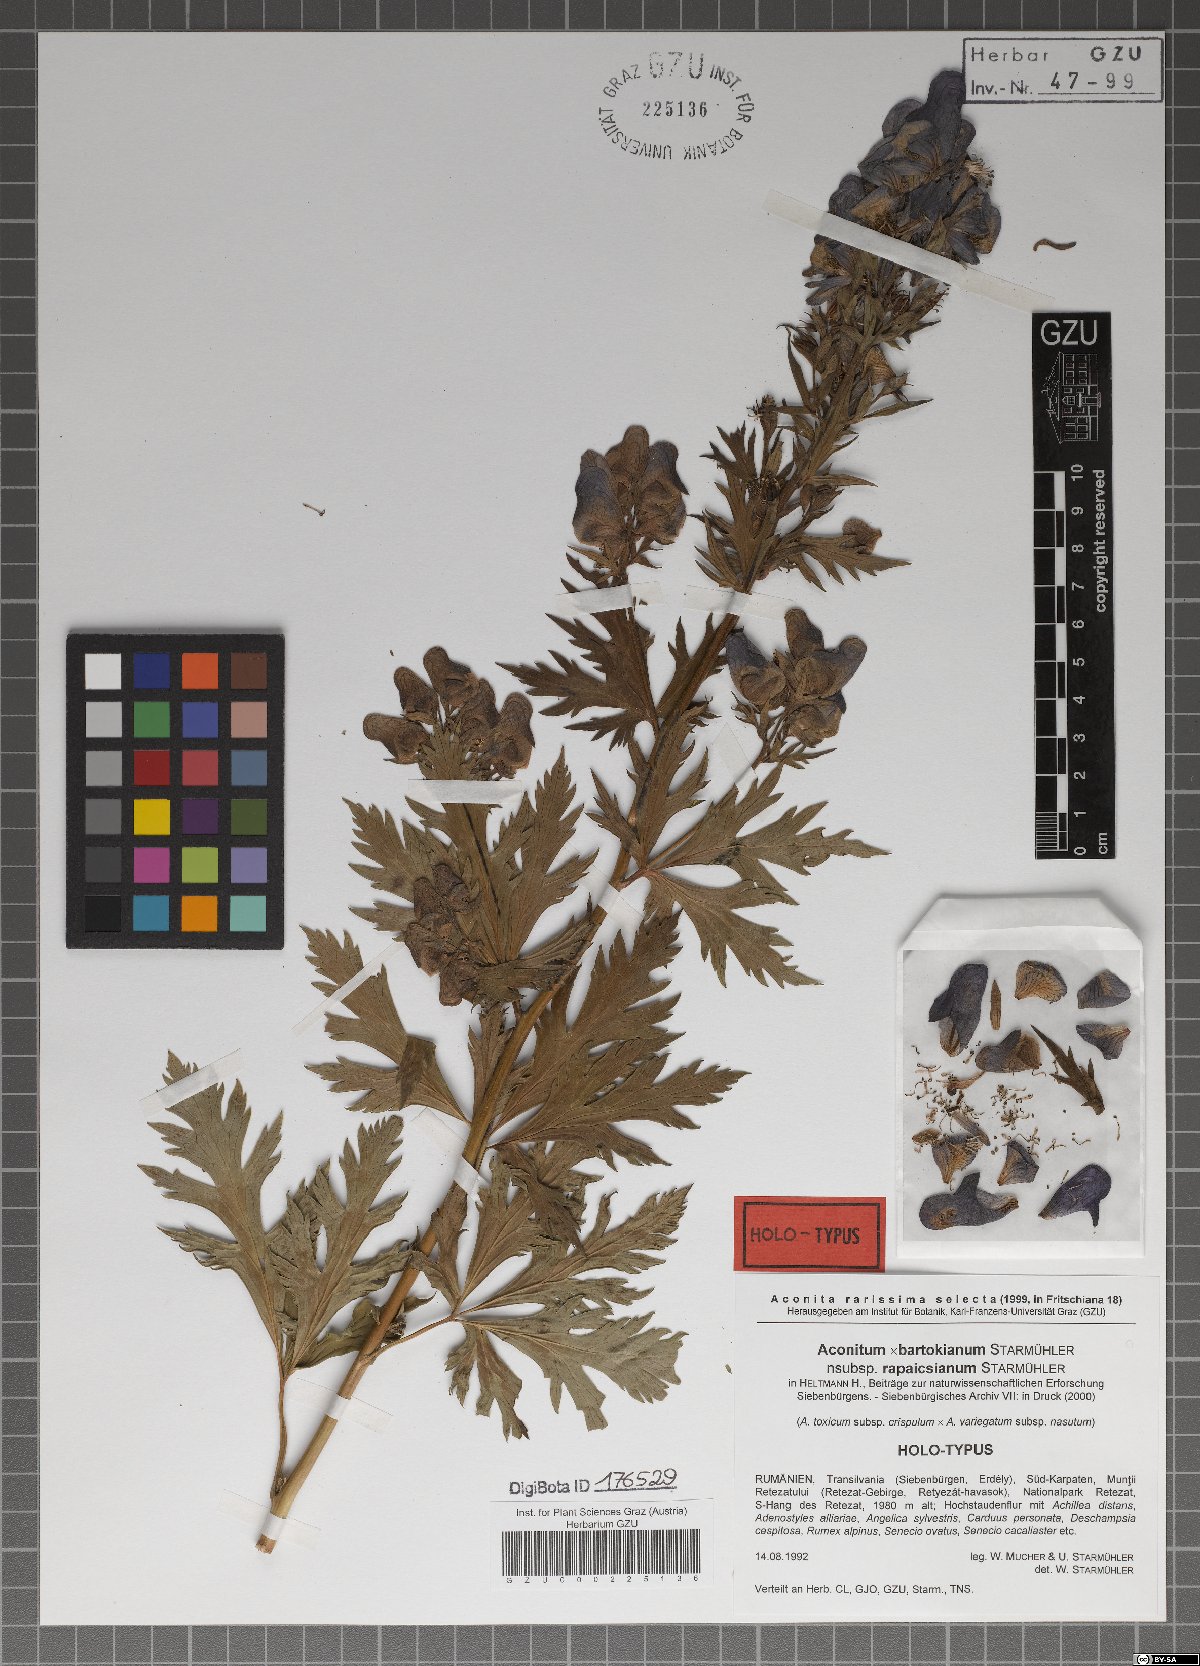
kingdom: Plantae
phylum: Tracheophyta
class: Magnoliopsida
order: Ranunculales
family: Ranunculaceae
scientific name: Ranunculaceae
